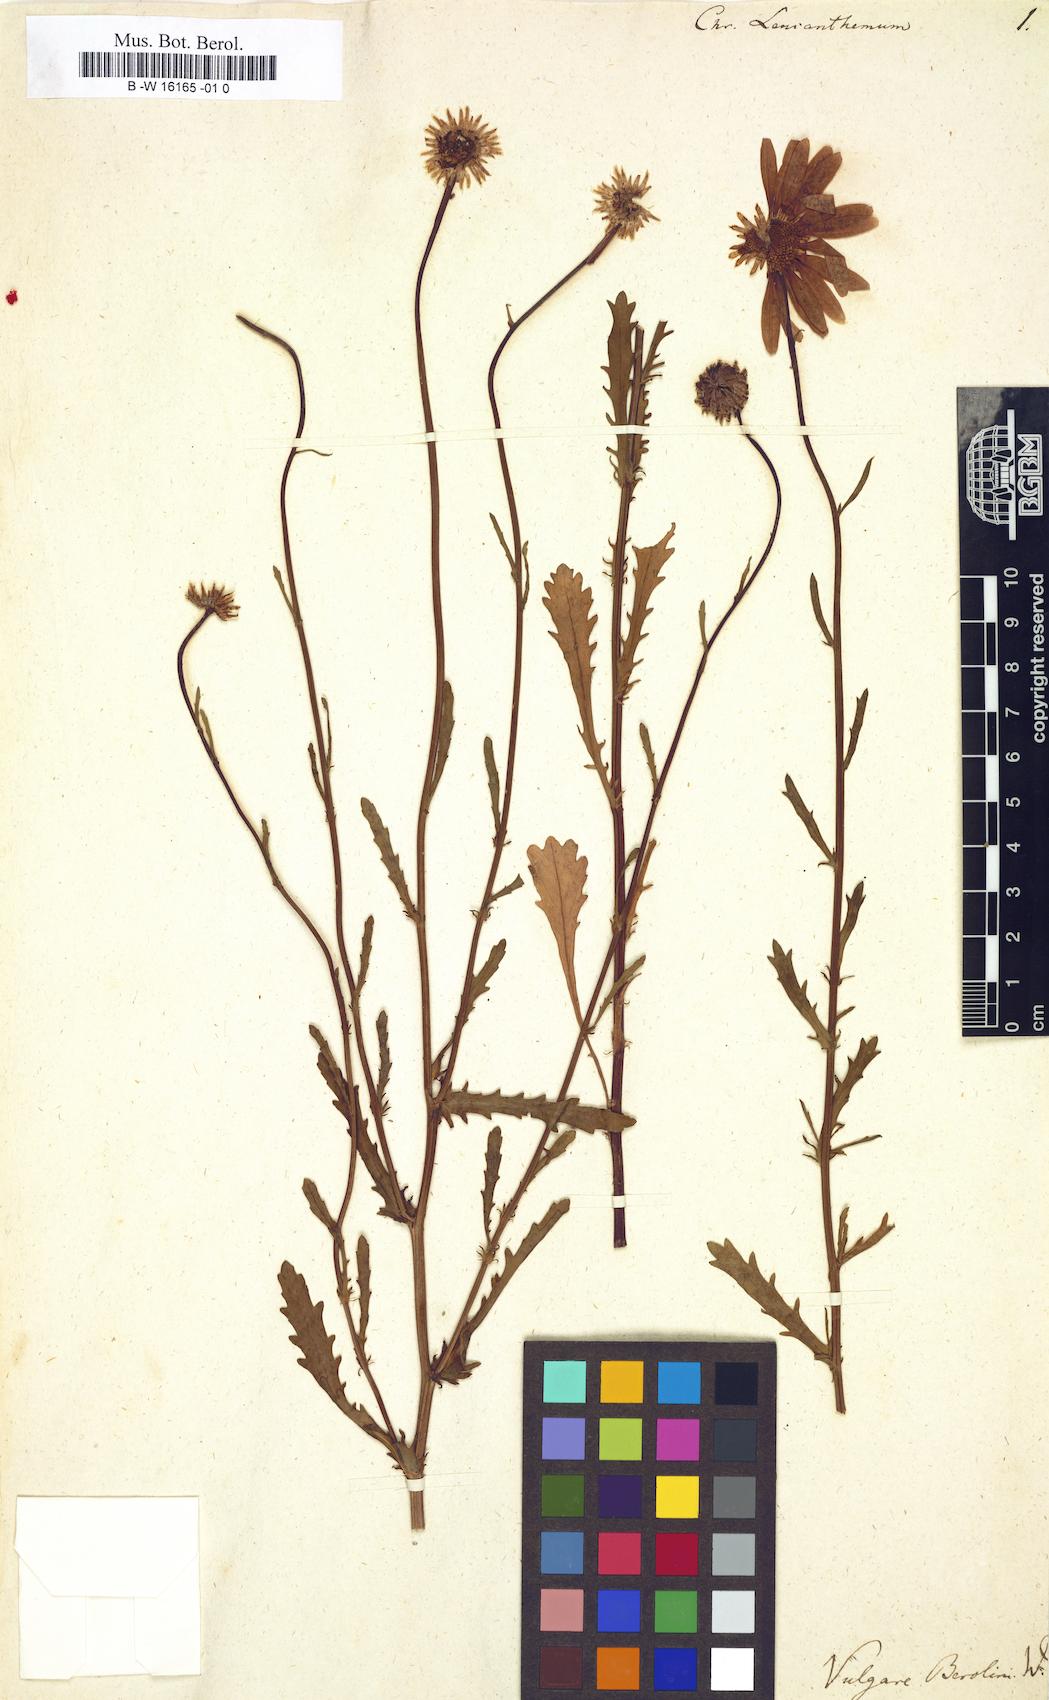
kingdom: Plantae
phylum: Tracheophyta
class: Magnoliopsida
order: Asterales
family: Asteraceae
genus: Leucanthemum
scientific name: Leucanthemum vulgare
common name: Oxeye daisy
